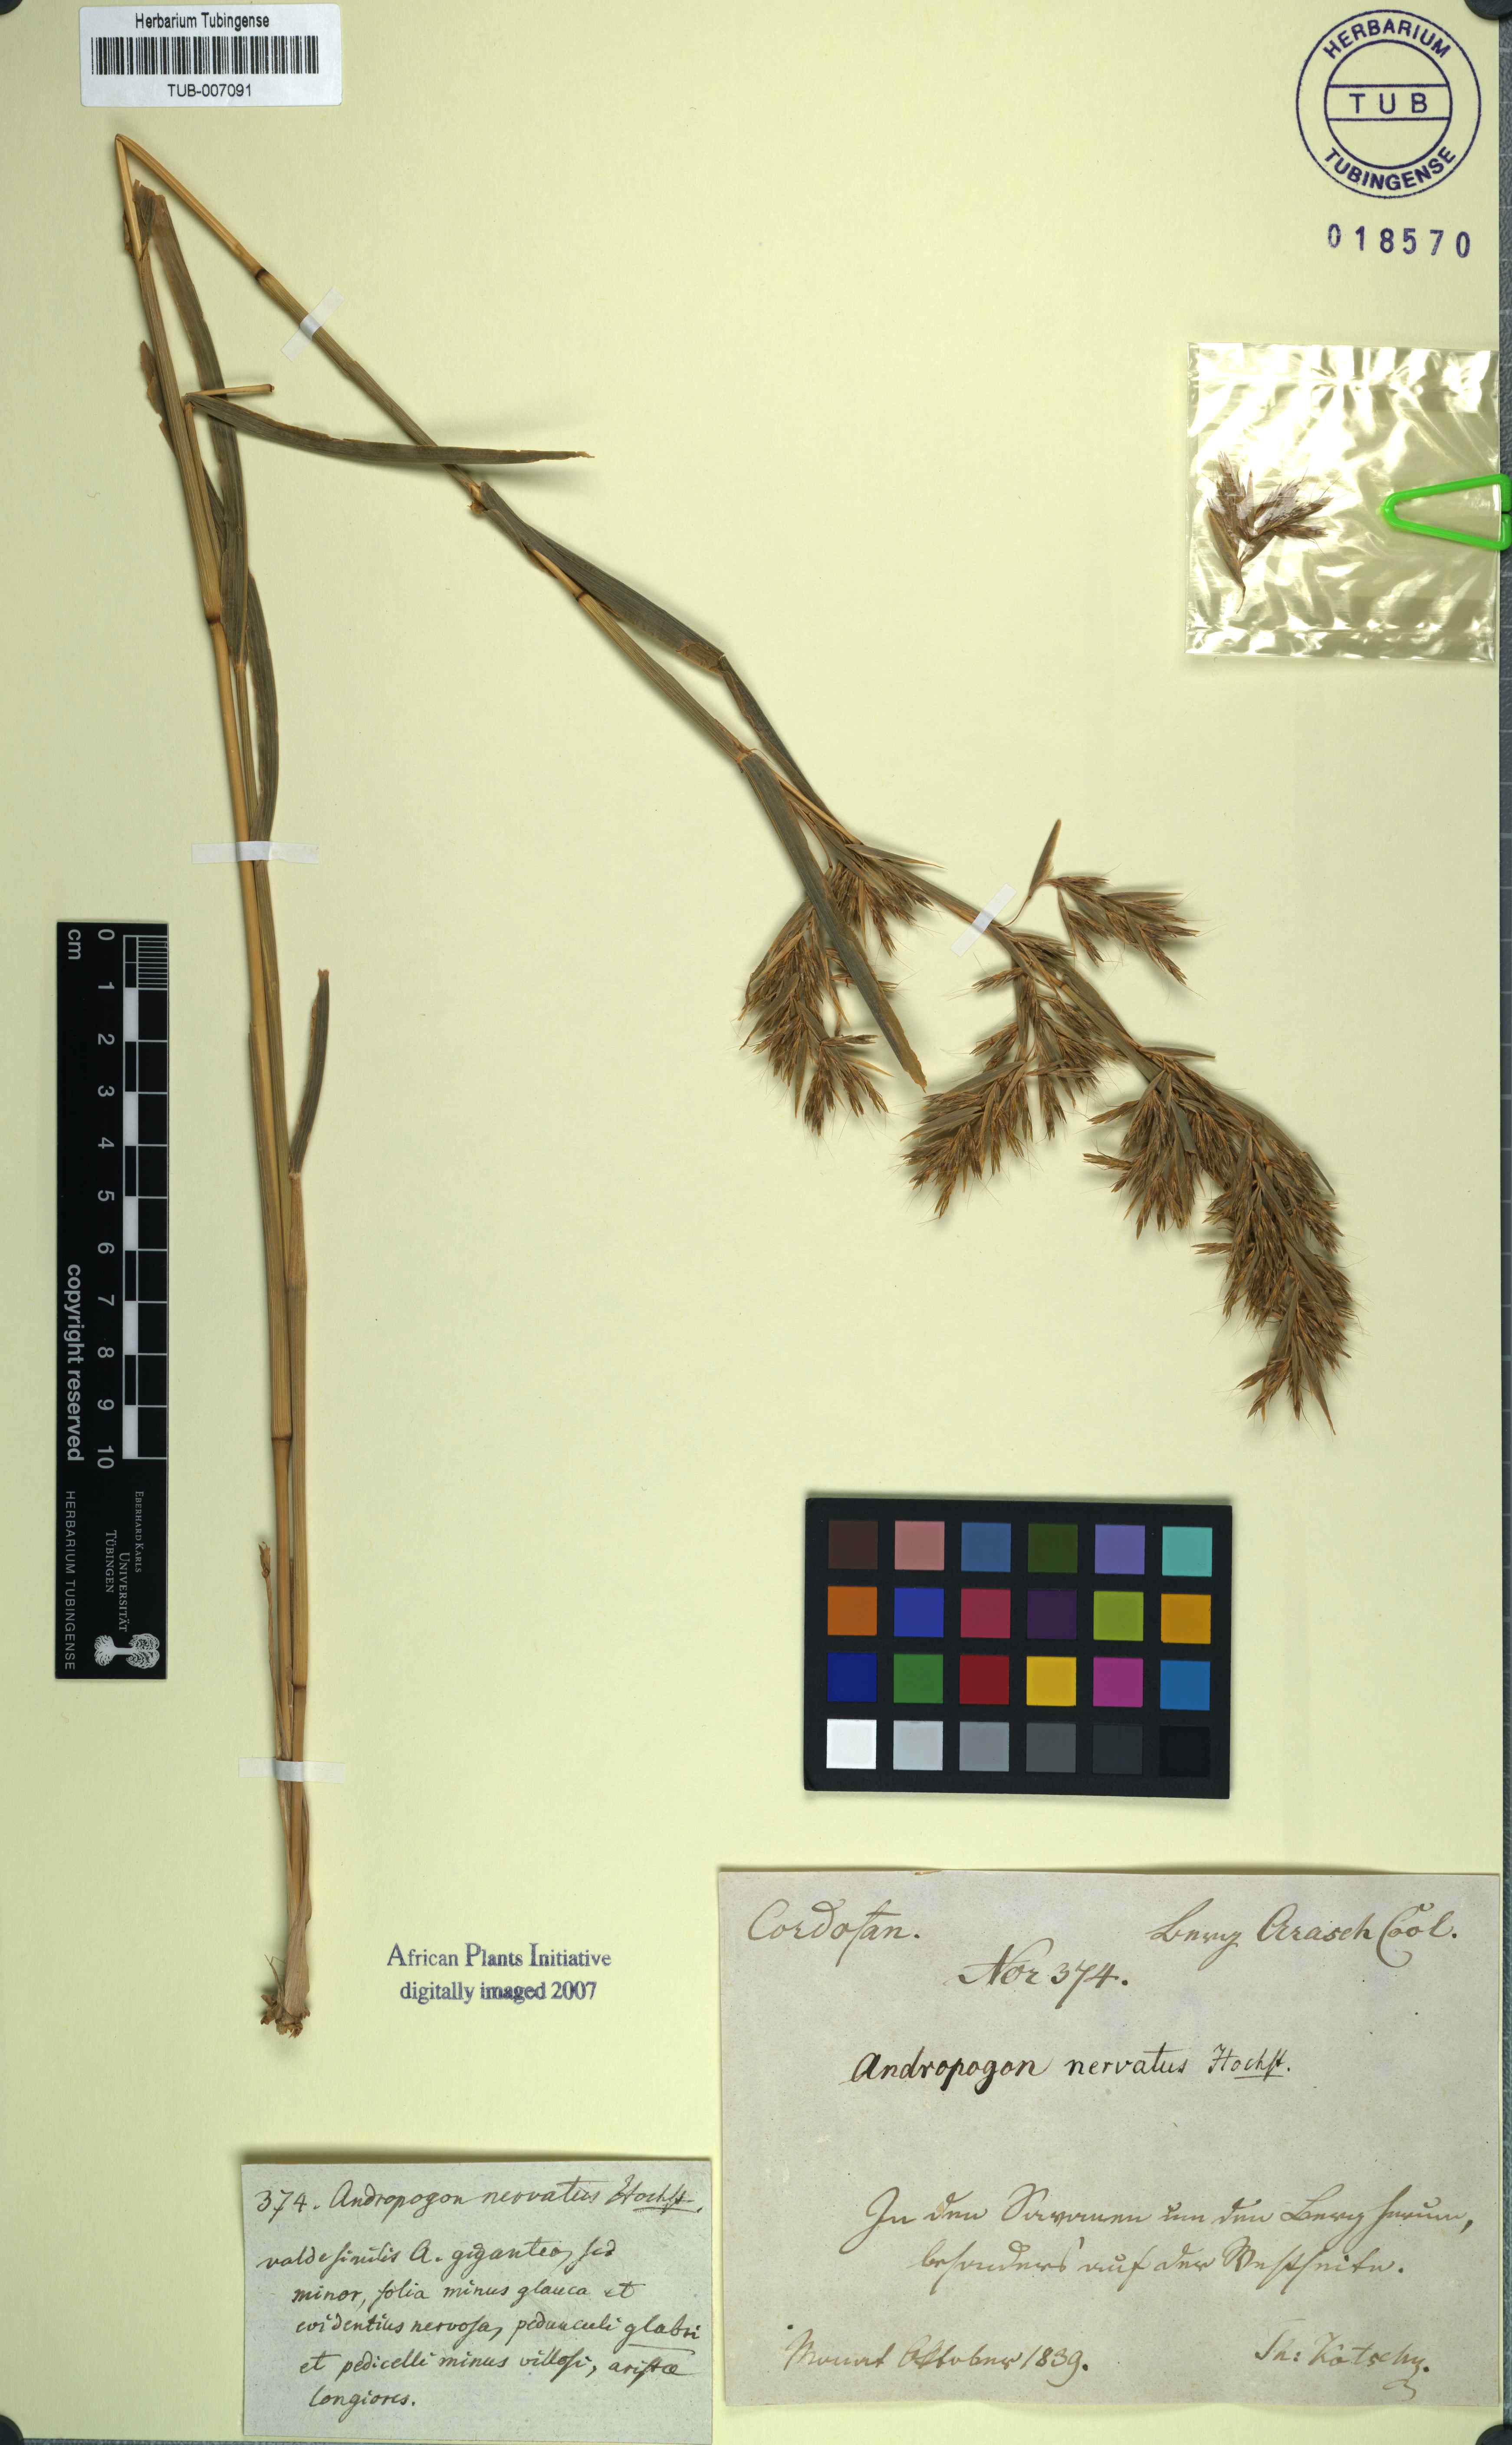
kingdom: Plantae
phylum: Tracheophyta
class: Liliopsida
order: Poales
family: Poaceae
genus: Cymbopogon
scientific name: Cymbopogon schoenanthus
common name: Geranium grass
